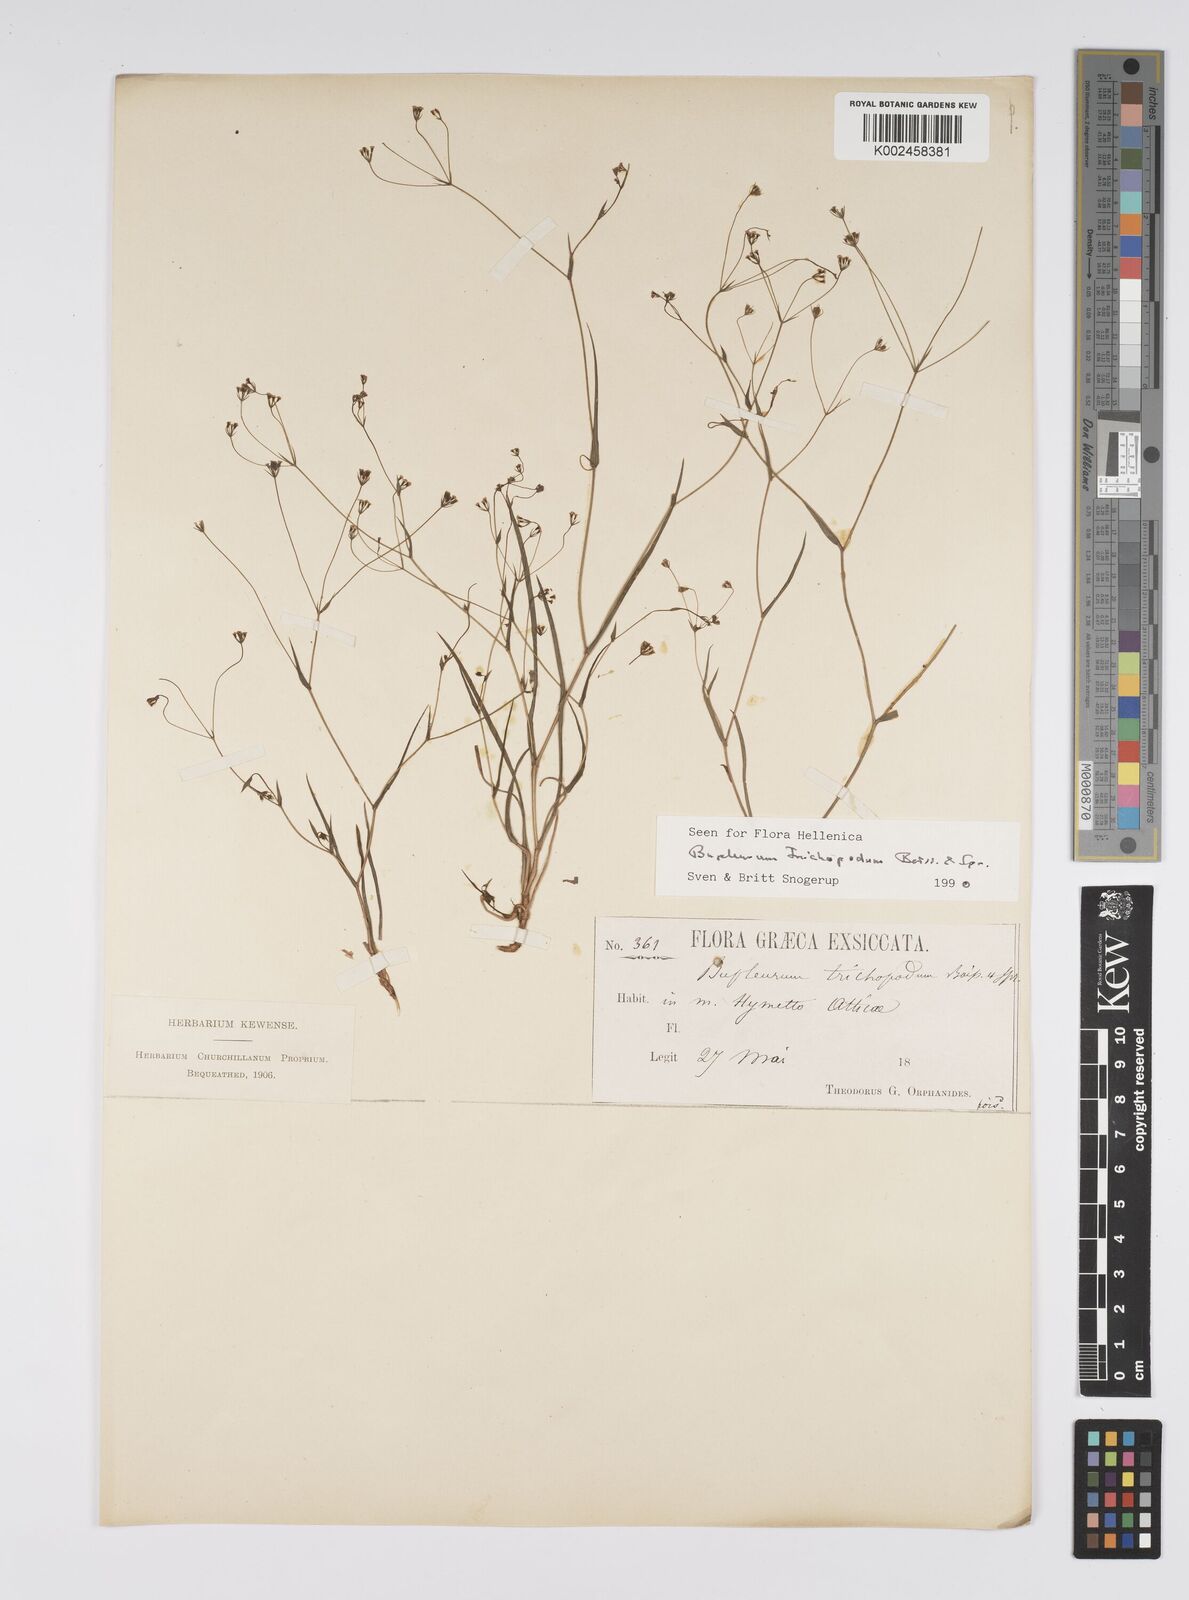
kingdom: Plantae
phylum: Tracheophyta
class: Magnoliopsida
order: Apiales
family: Apiaceae
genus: Bupleurum
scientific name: Bupleurum trichopodum
